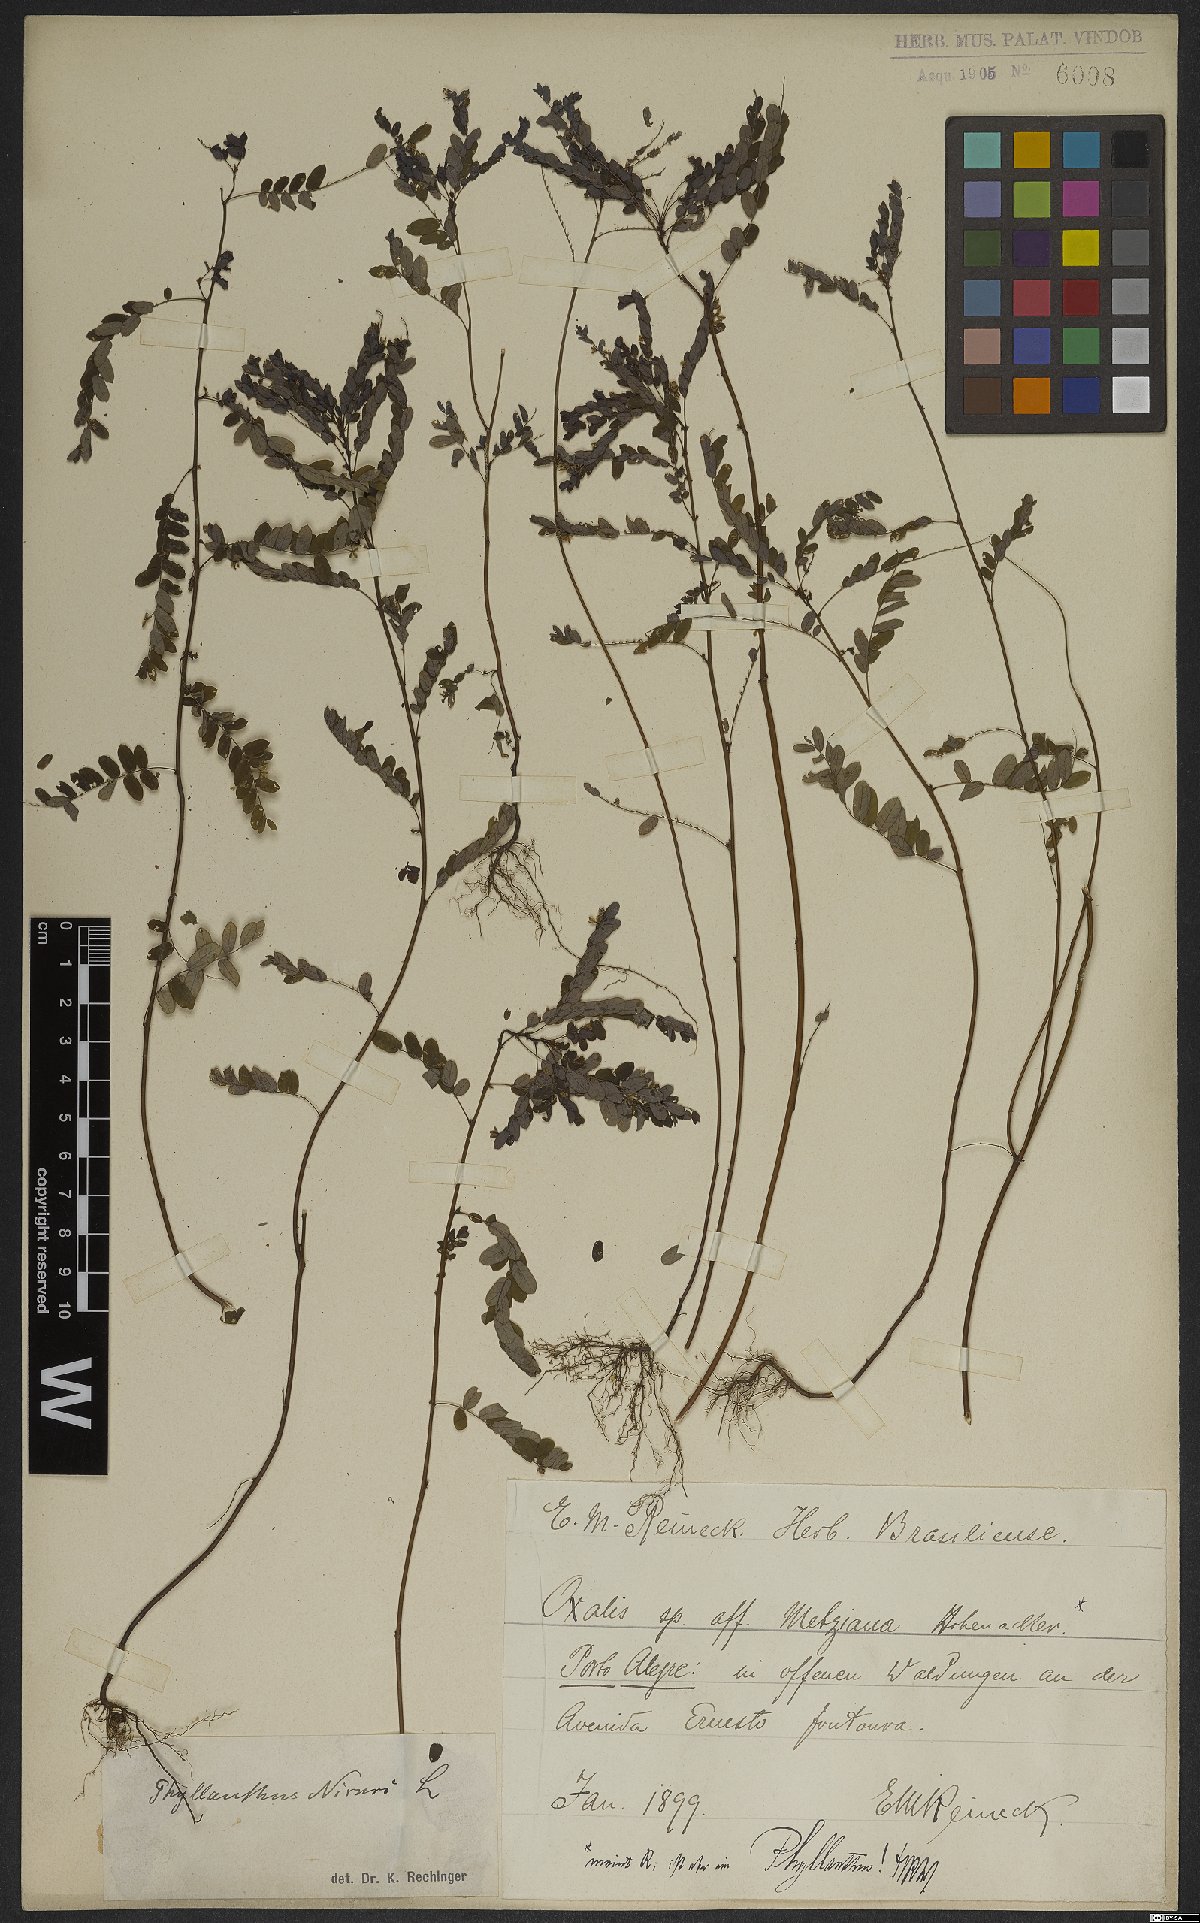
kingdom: Plantae
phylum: Tracheophyta
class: Magnoliopsida
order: Malpighiales
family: Phyllanthaceae
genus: Phyllanthus
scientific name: Phyllanthus niruri
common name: Niruri
